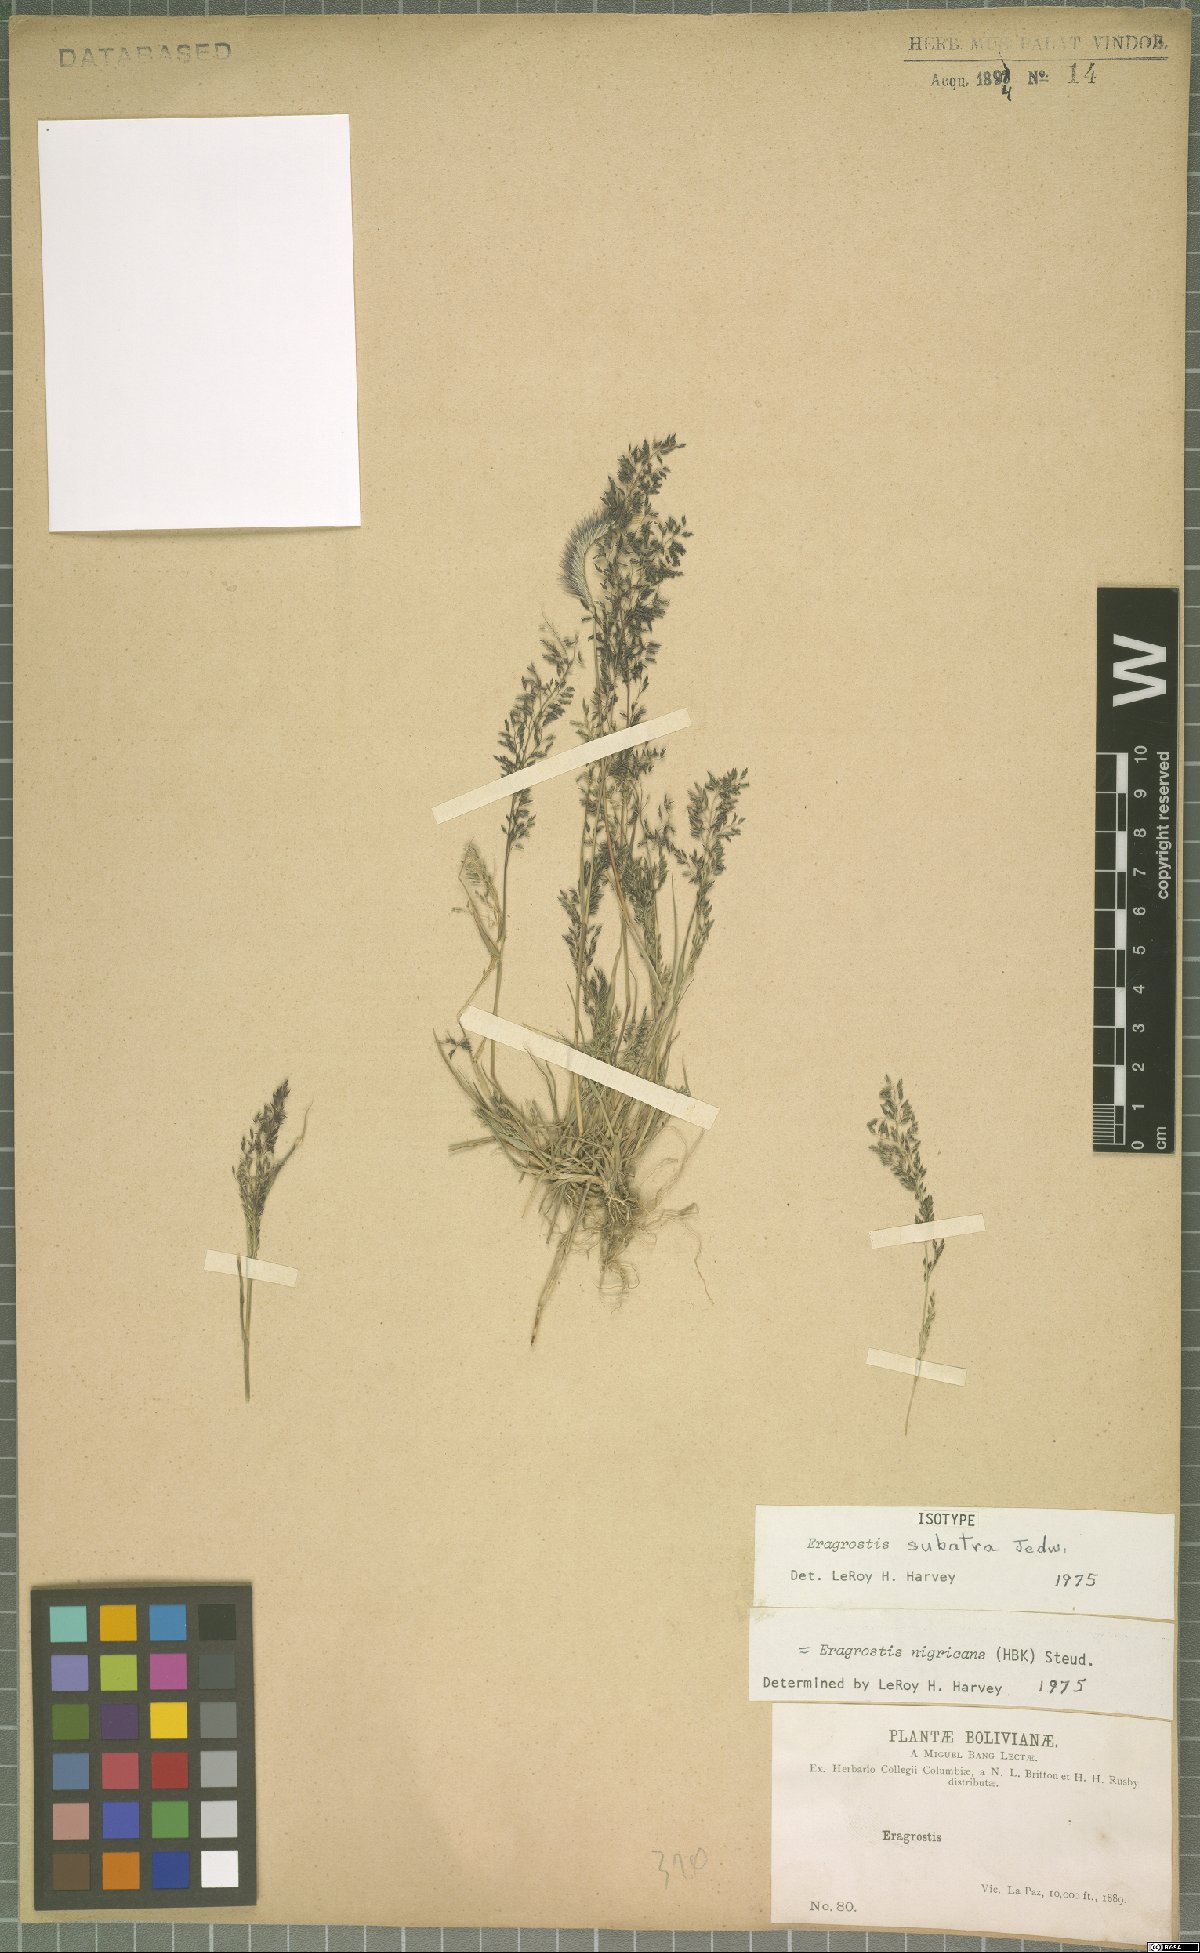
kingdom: Plantae
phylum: Tracheophyta
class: Liliopsida
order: Poales
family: Poaceae
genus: Eragrostis
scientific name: Eragrostis nigricans
